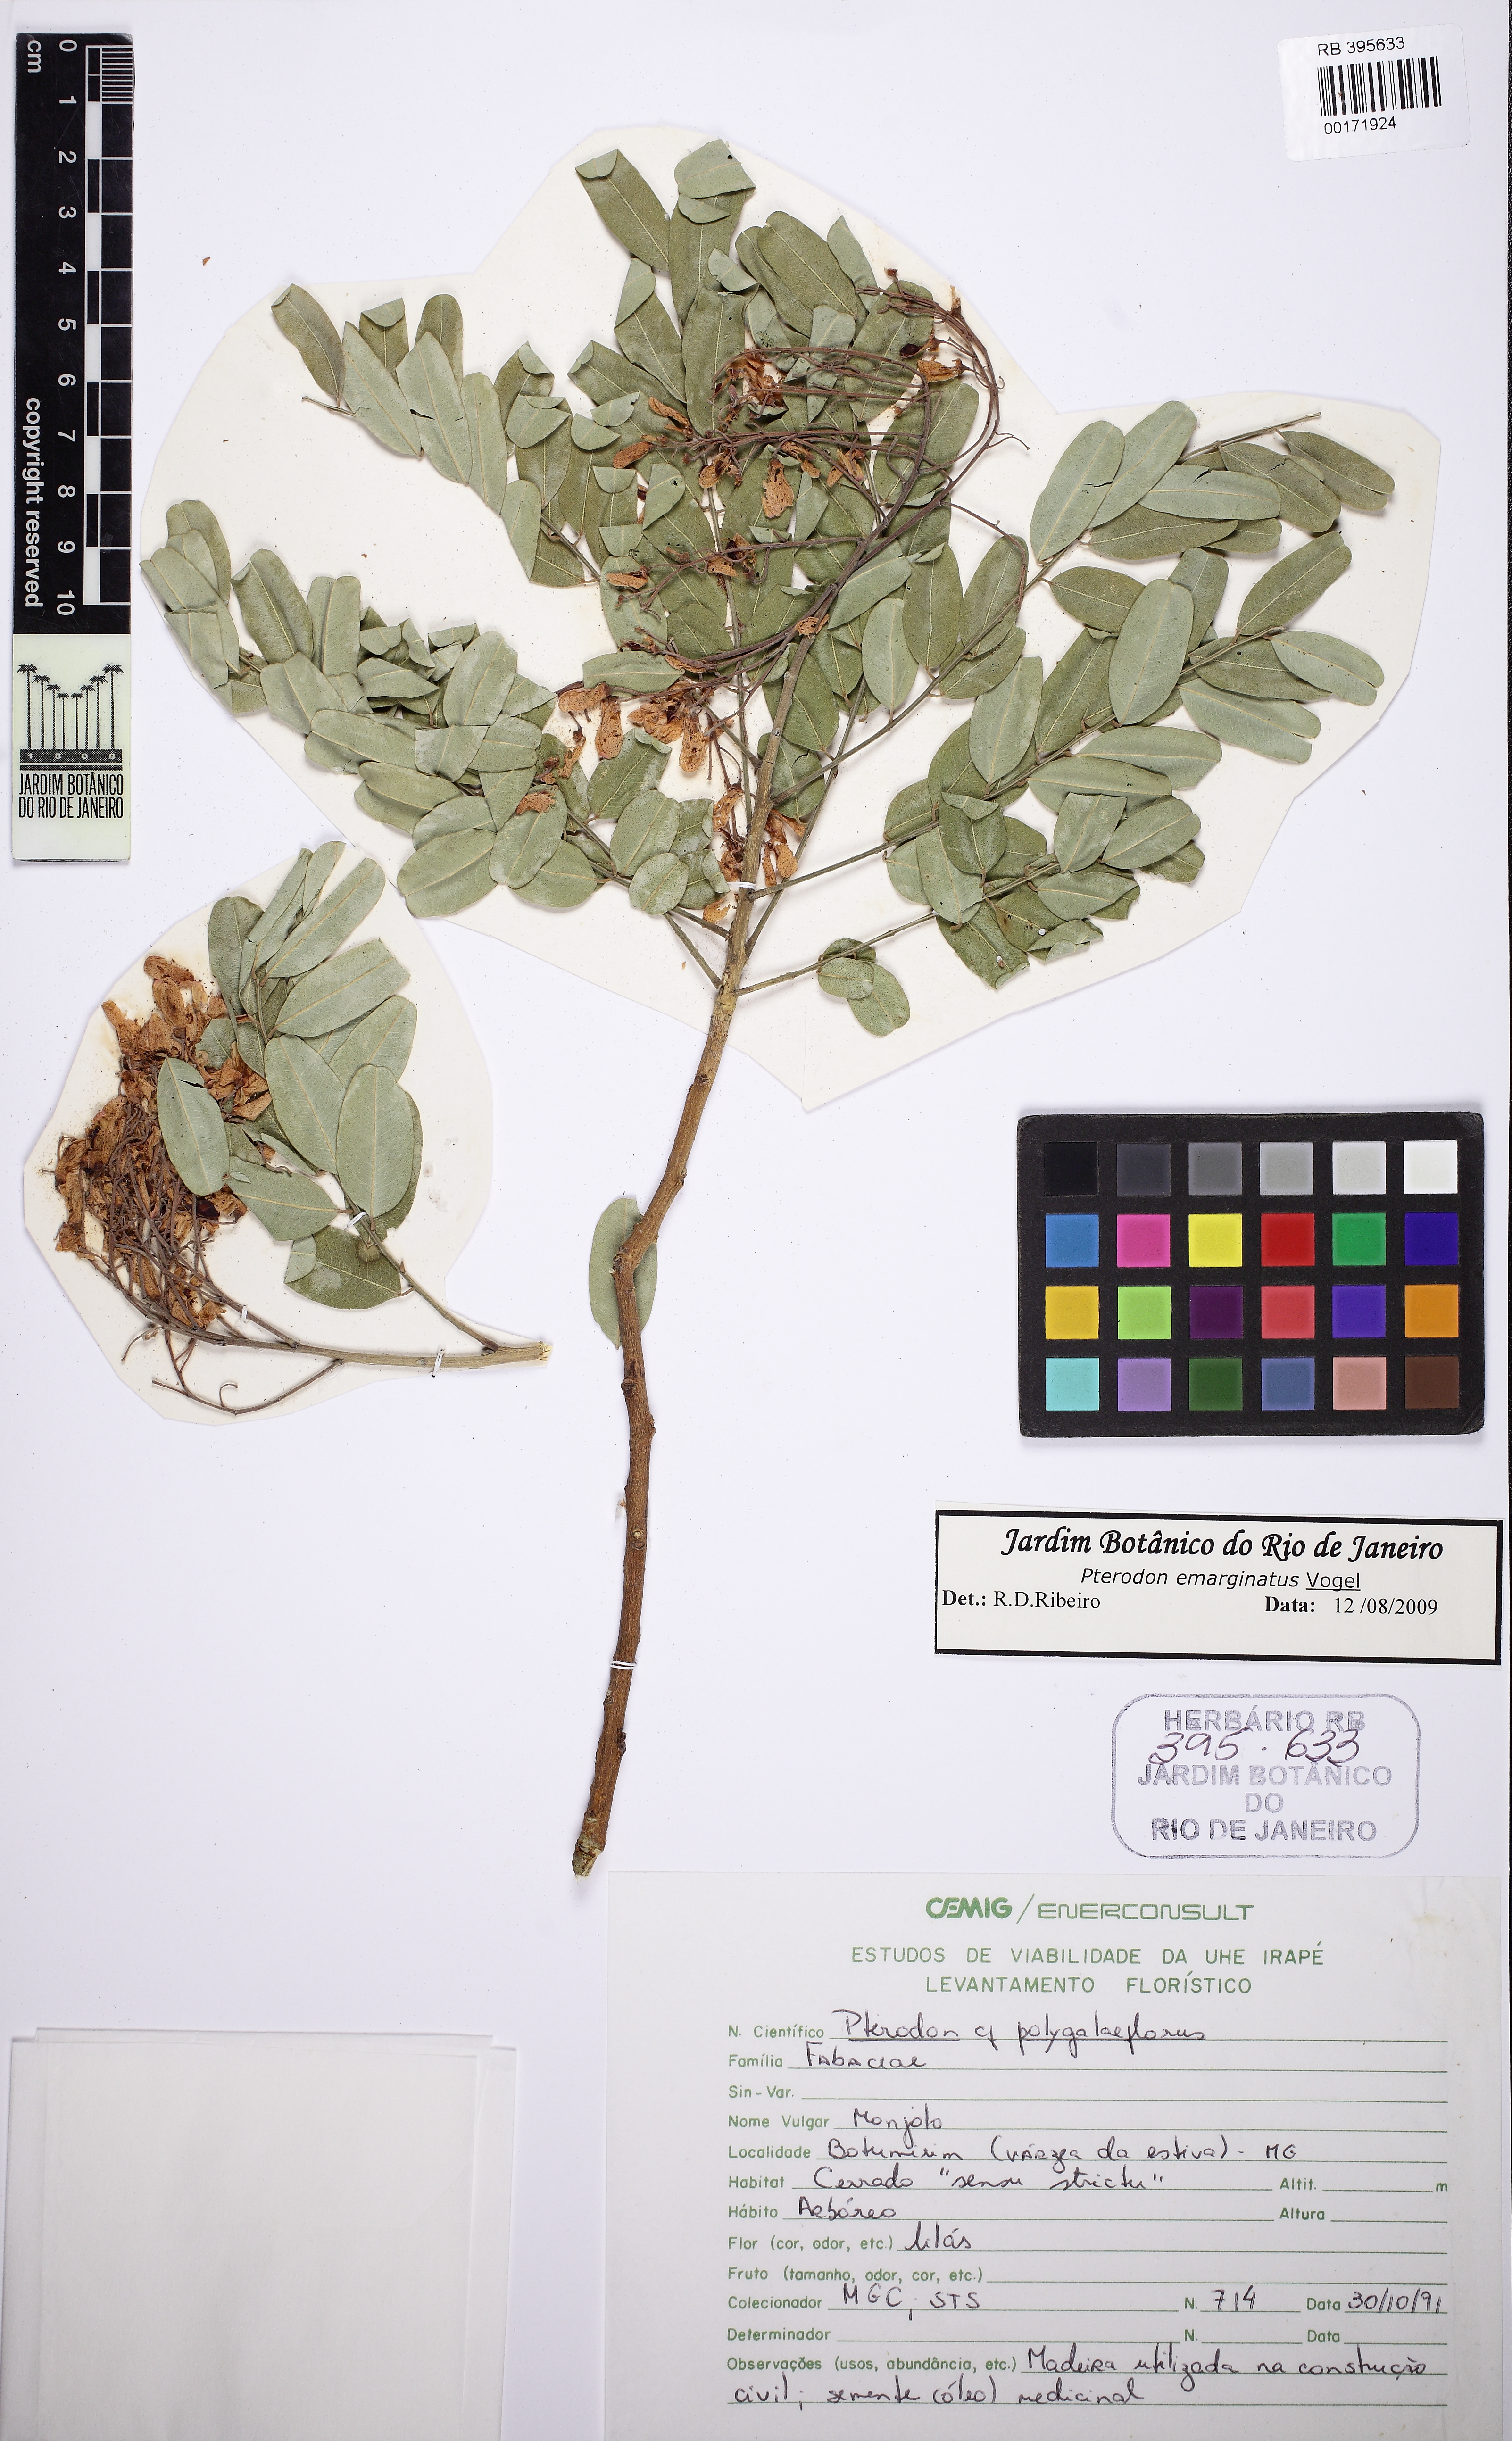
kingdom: Plantae
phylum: Tracheophyta
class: Magnoliopsida
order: Fabales
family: Fabaceae
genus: Pterodon
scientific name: Pterodon emarginatus
